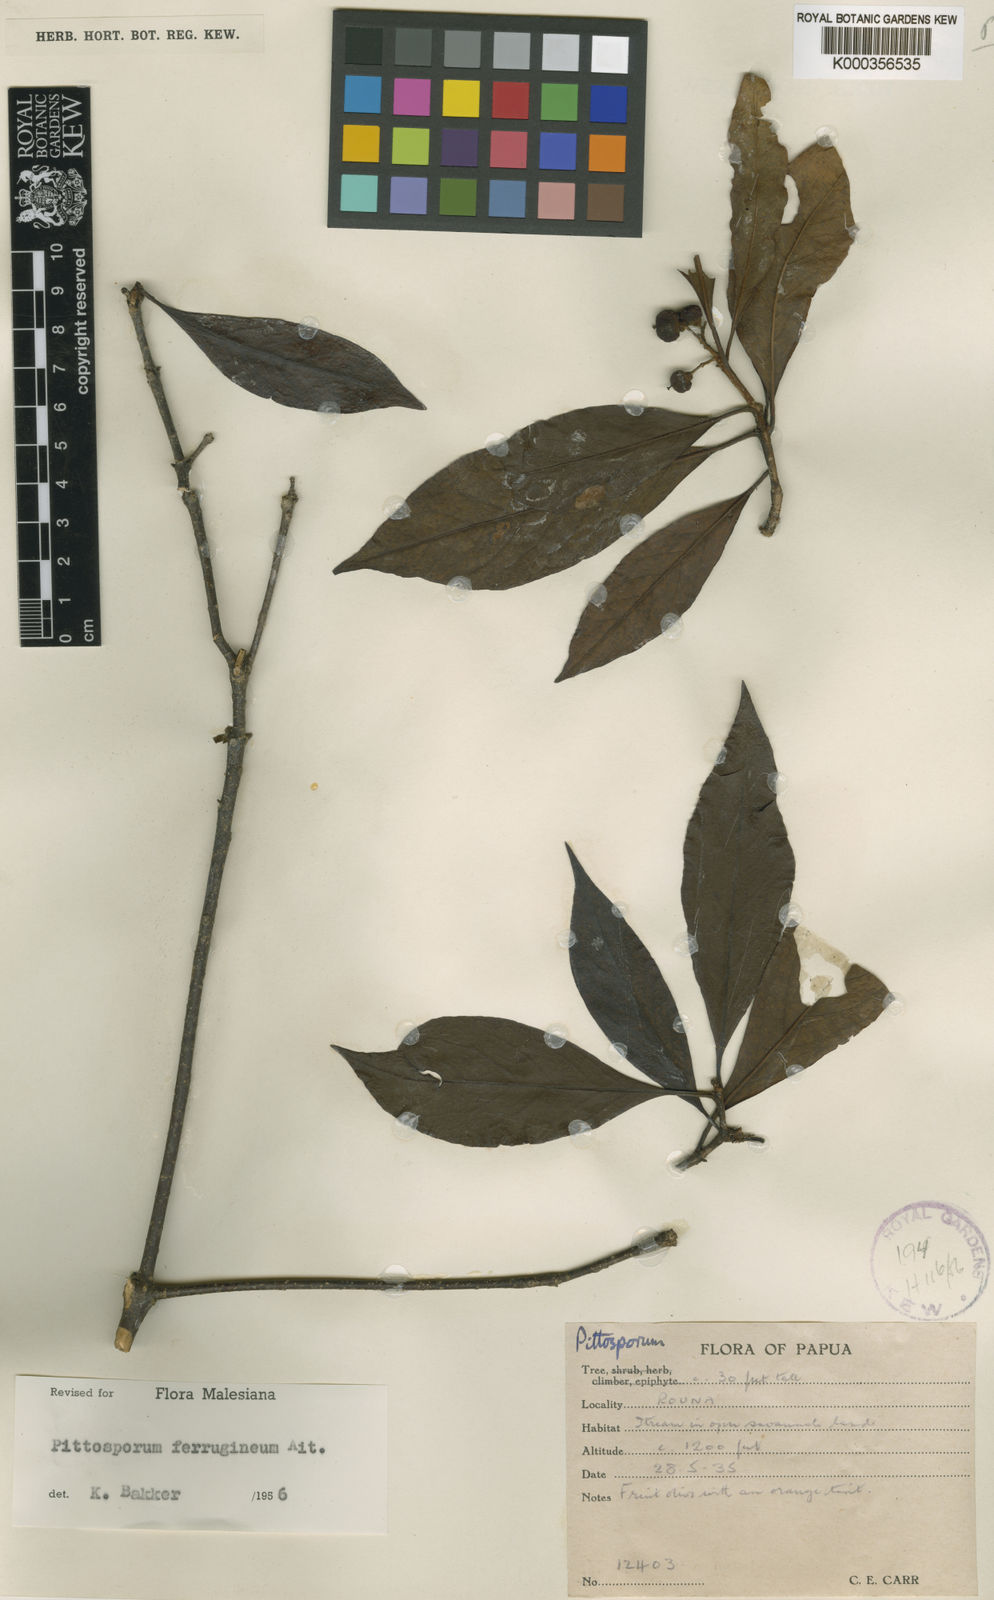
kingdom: Plantae
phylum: Tracheophyta
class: Magnoliopsida
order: Apiales
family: Pittosporaceae
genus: Pittosporum
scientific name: Pittosporum ferrugineum
